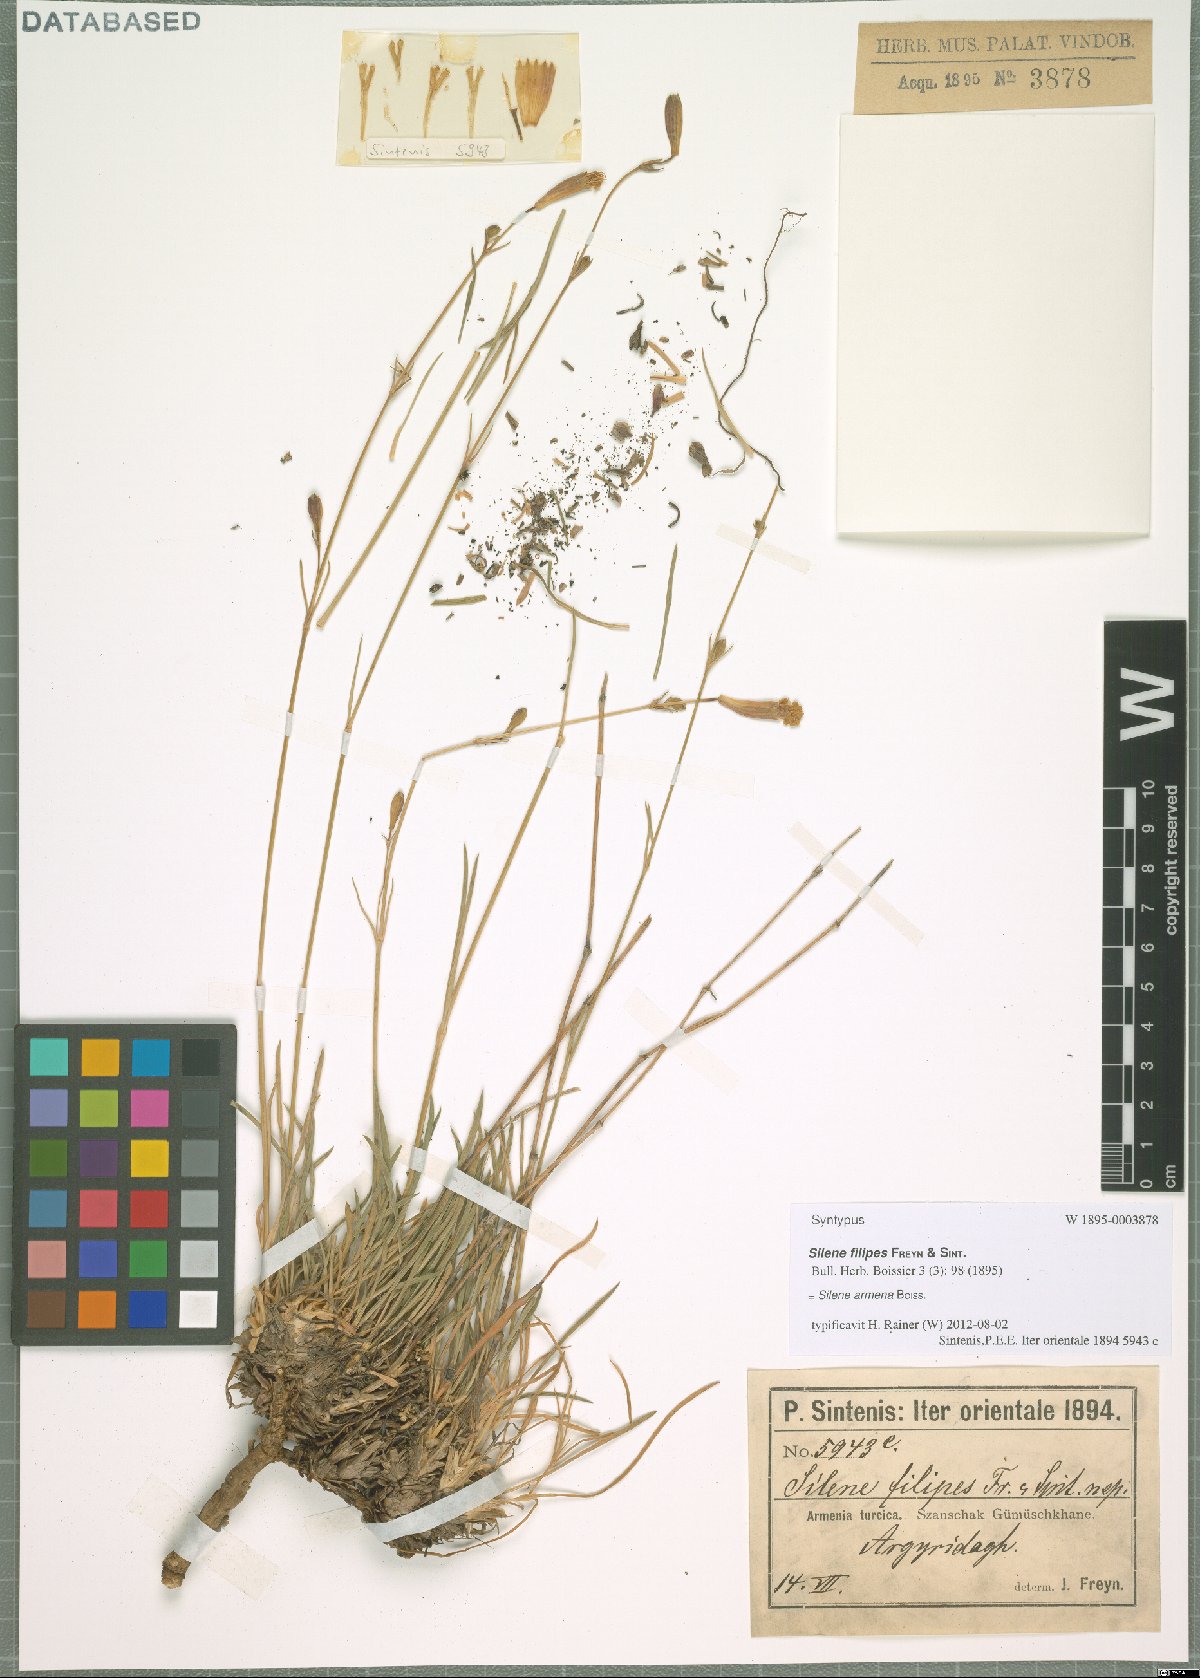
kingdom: Plantae
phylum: Tracheophyta
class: Magnoliopsida
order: Caryophyllales
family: Caryophyllaceae
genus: Silene
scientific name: Silene armena
